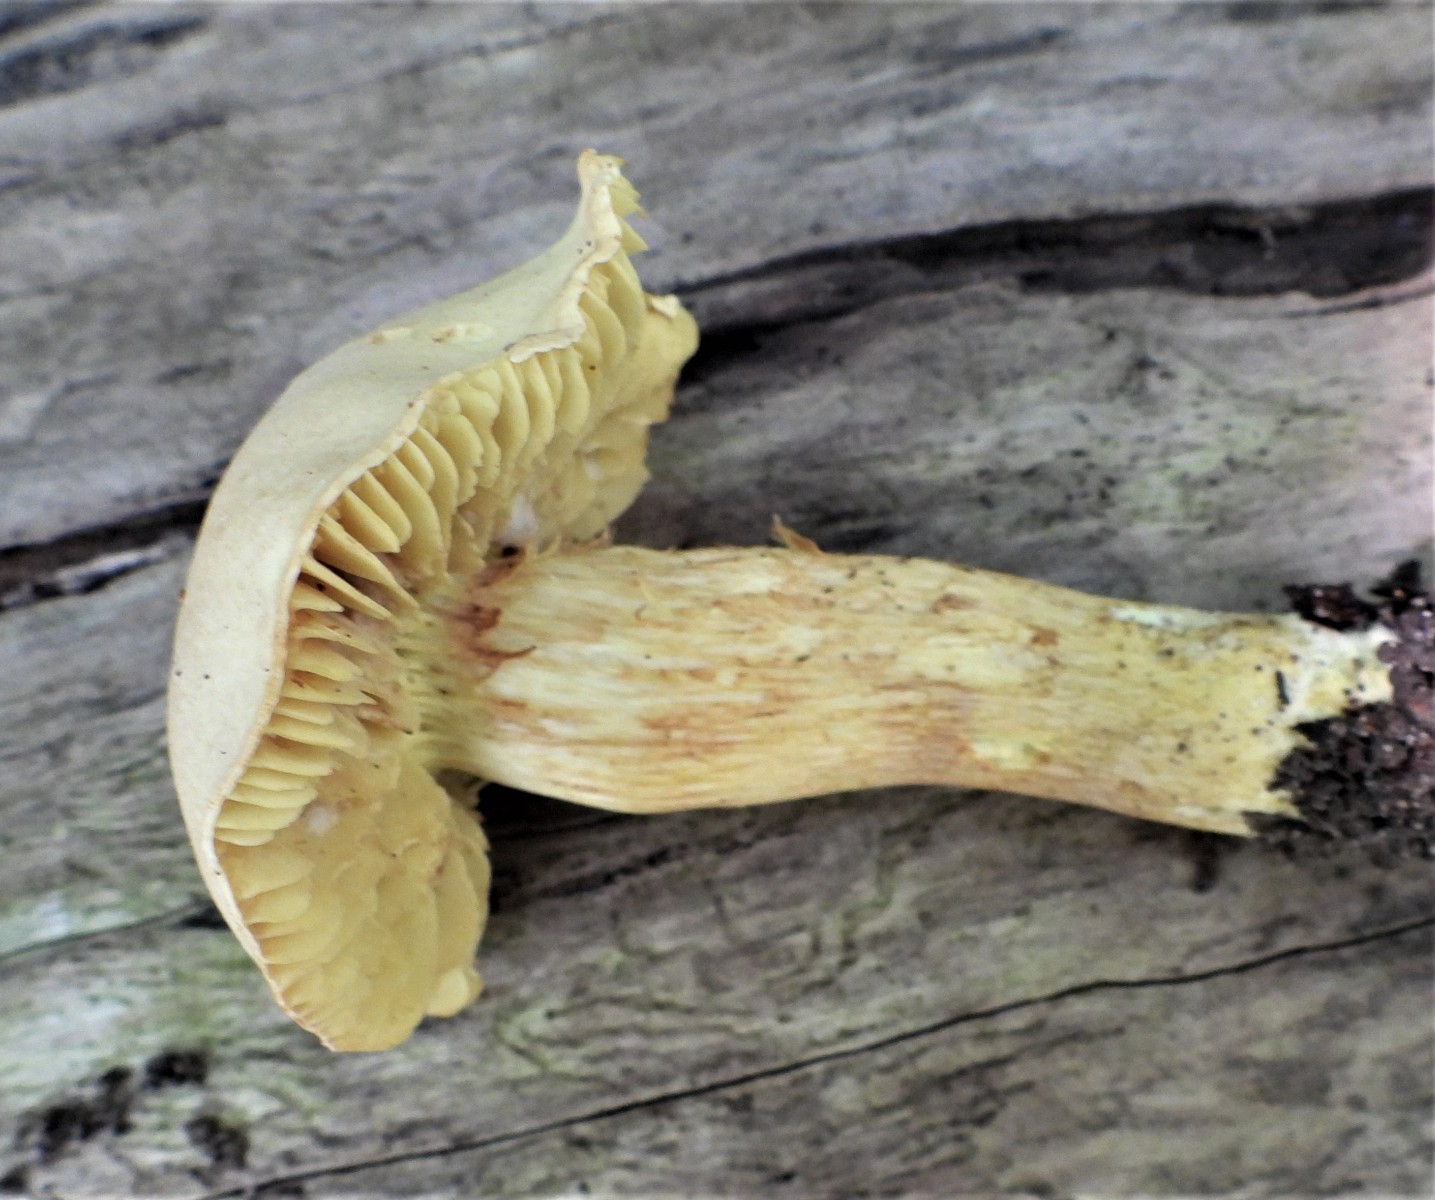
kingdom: Fungi
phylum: Basidiomycota
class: Agaricomycetes
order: Agaricales
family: Tricholomataceae
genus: Tricholoma
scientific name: Tricholoma sulphureum
